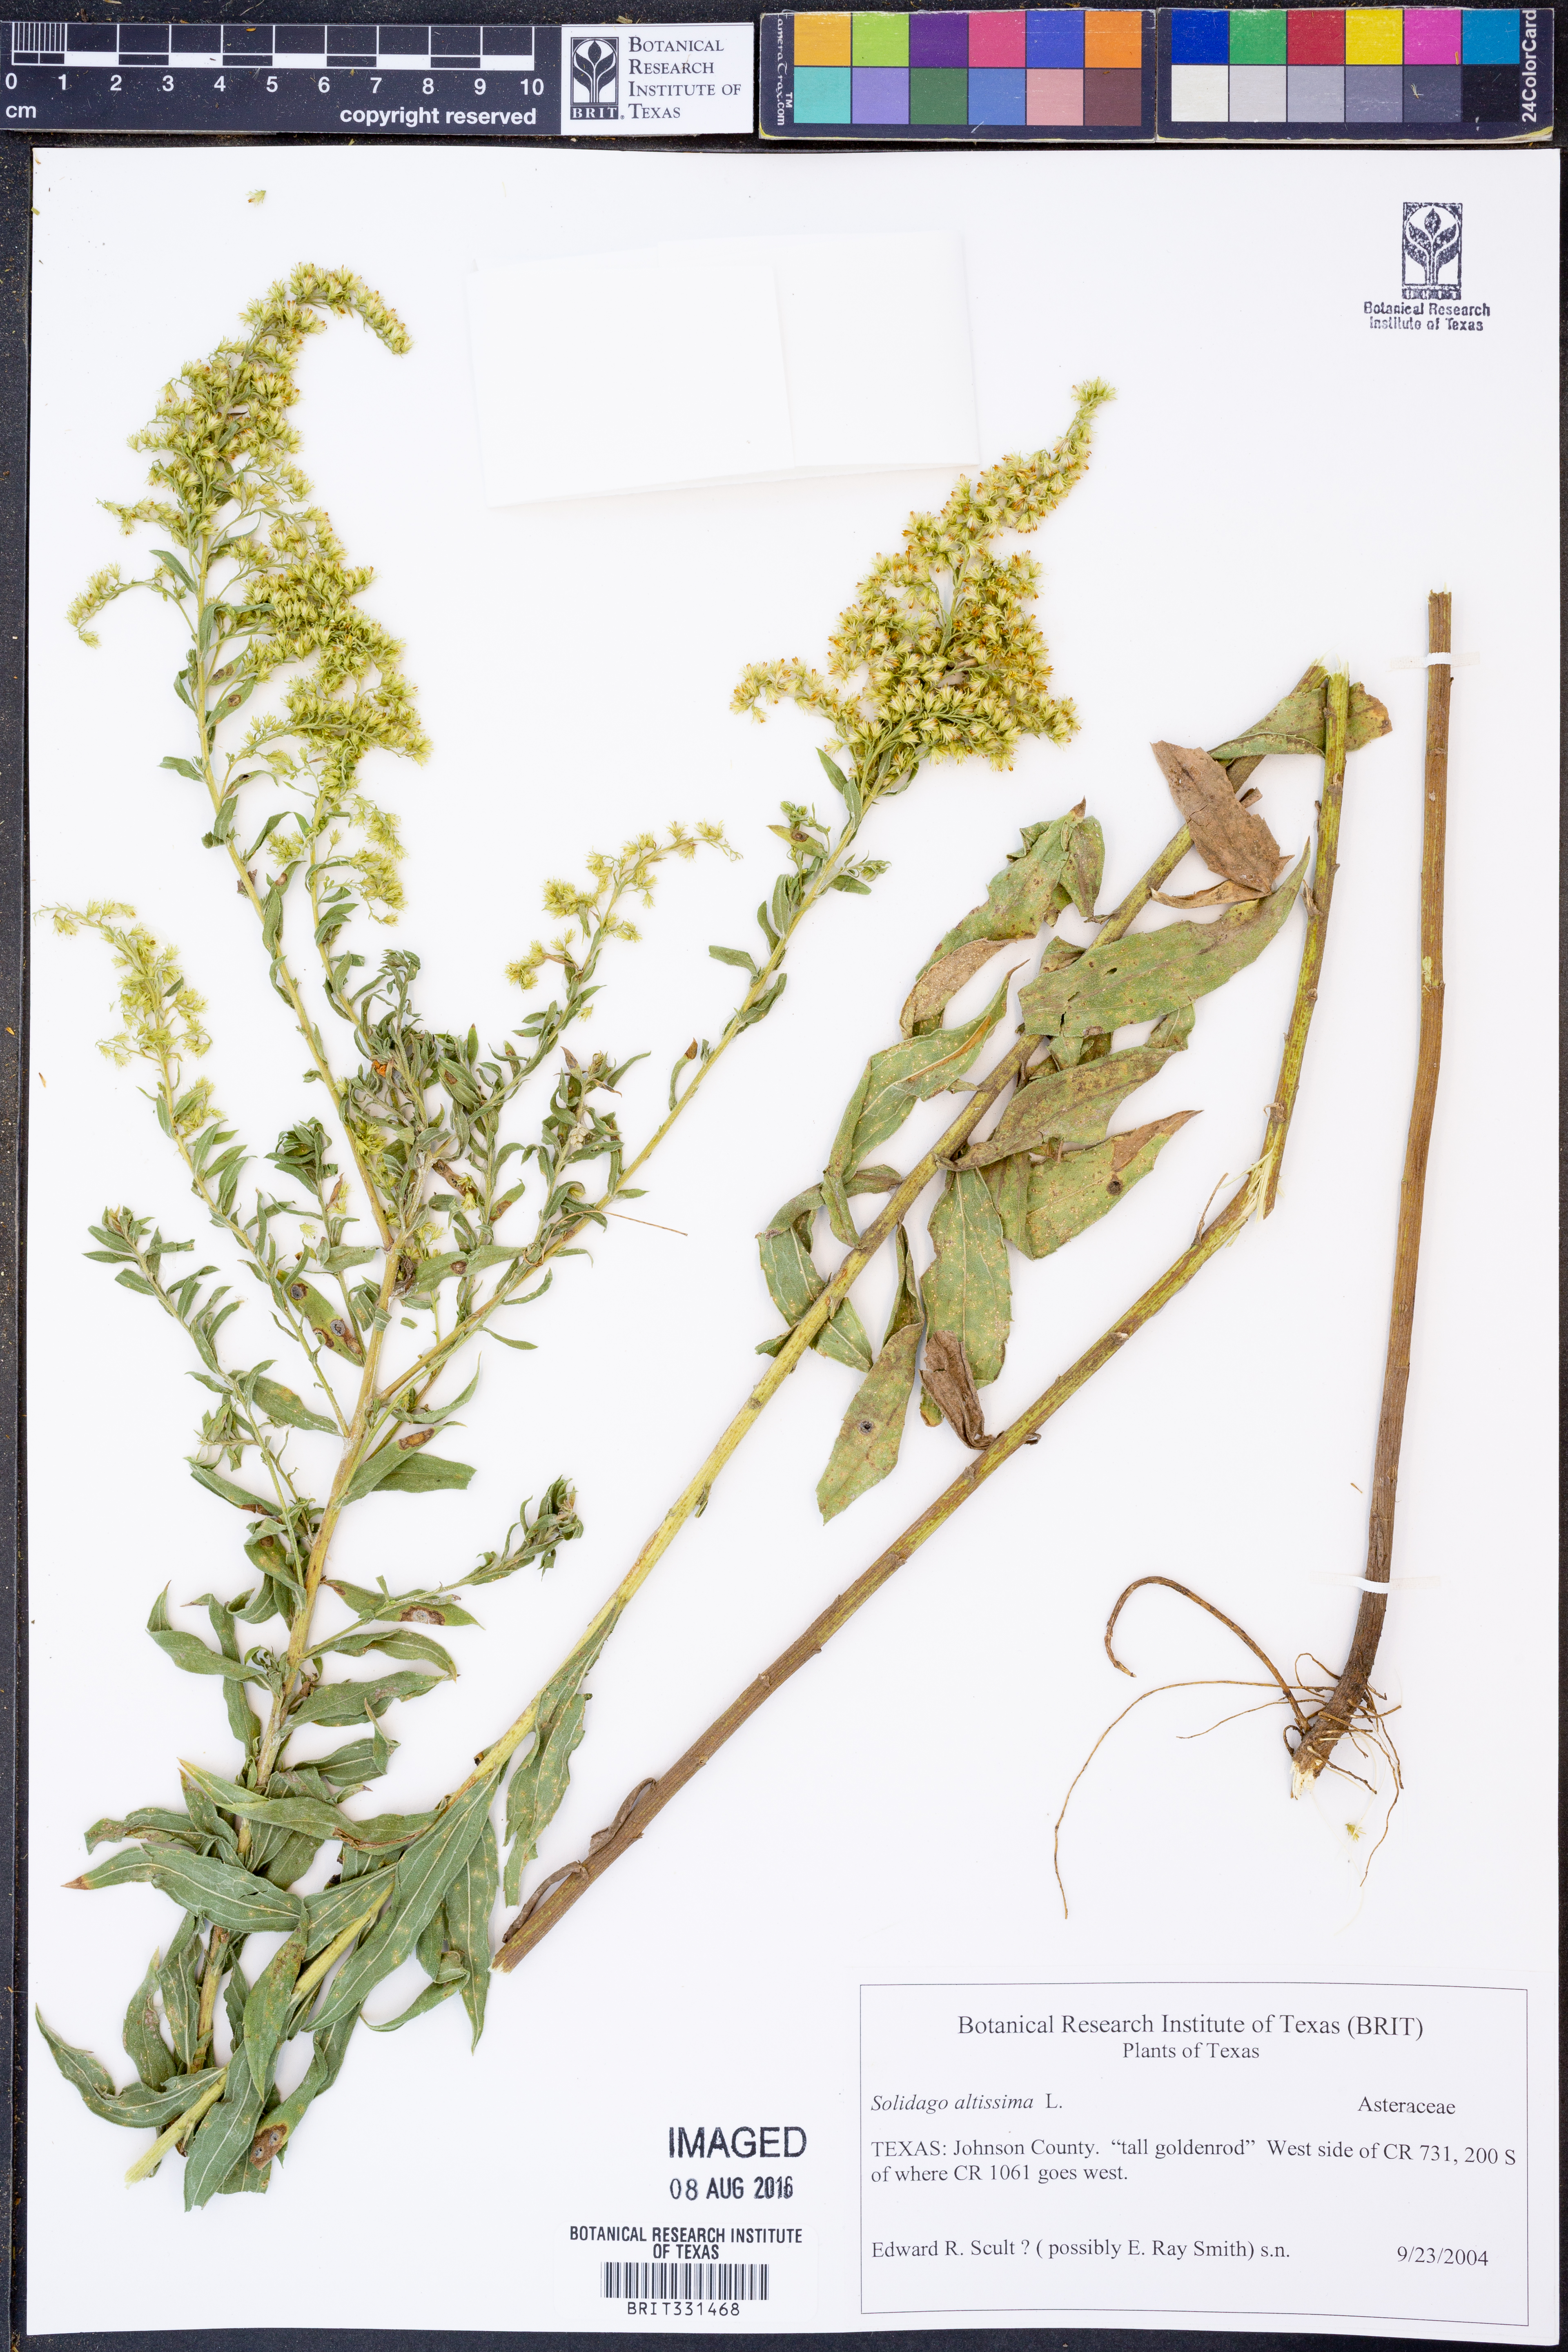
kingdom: Plantae
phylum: Tracheophyta
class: Magnoliopsida
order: Asterales
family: Asteraceae
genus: Solidago
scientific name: Solidago altissima
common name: Late goldenrod
